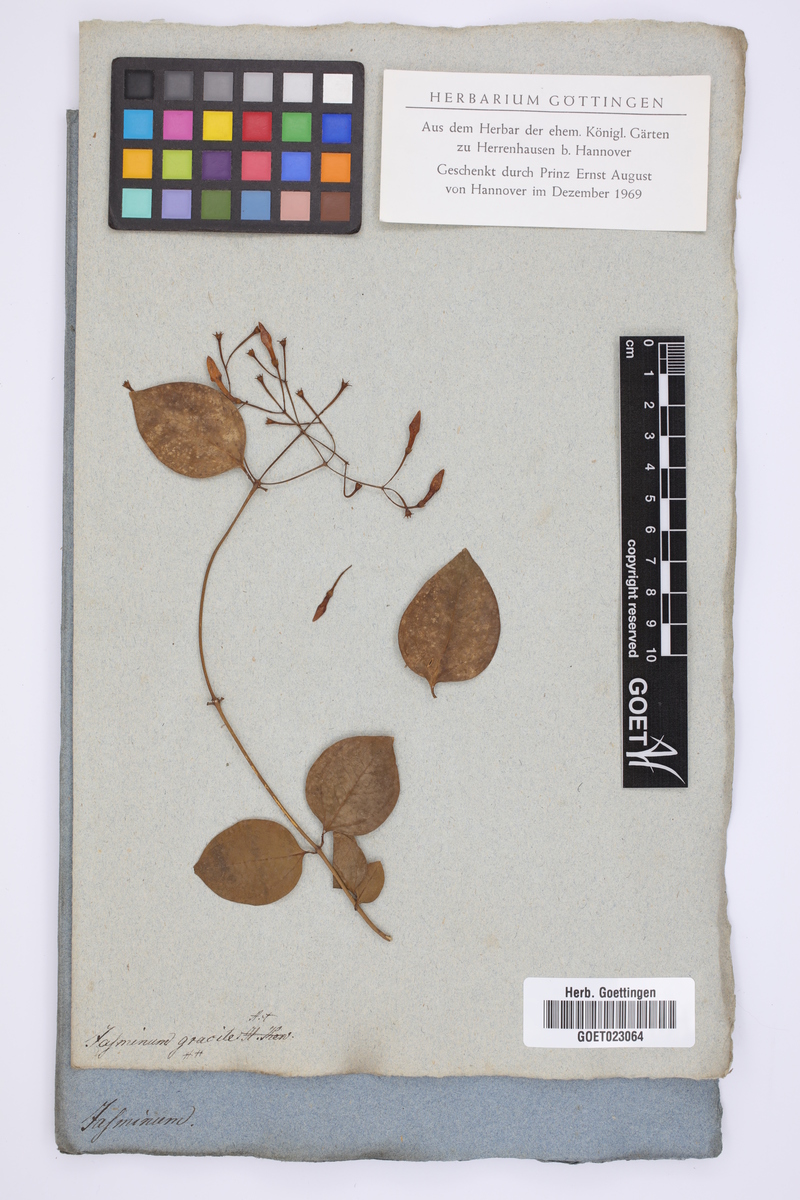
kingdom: Plantae
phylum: Tracheophyta
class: Magnoliopsida
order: Lamiales
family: Oleaceae
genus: Jasminum
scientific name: Jasminum simplicifolium
